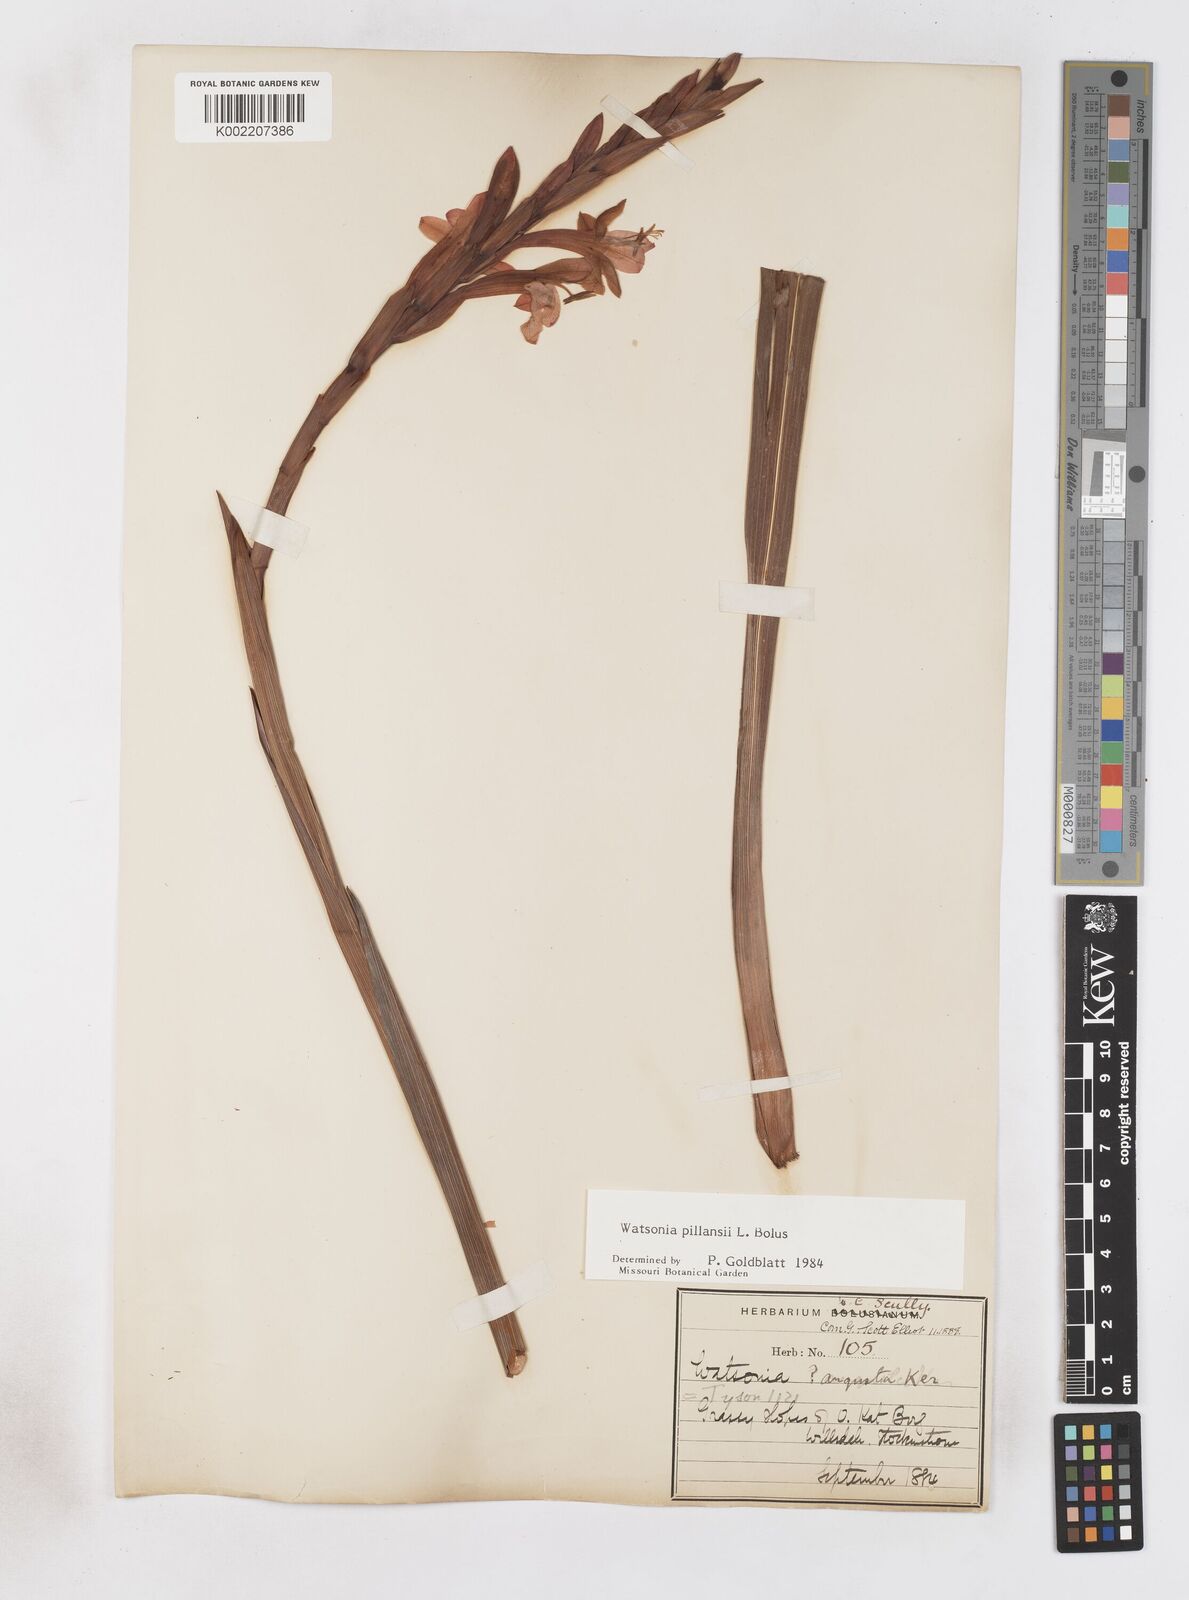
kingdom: Plantae
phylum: Tracheophyta
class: Liliopsida
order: Asparagales
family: Iridaceae
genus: Watsonia
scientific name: Watsonia pillansii
